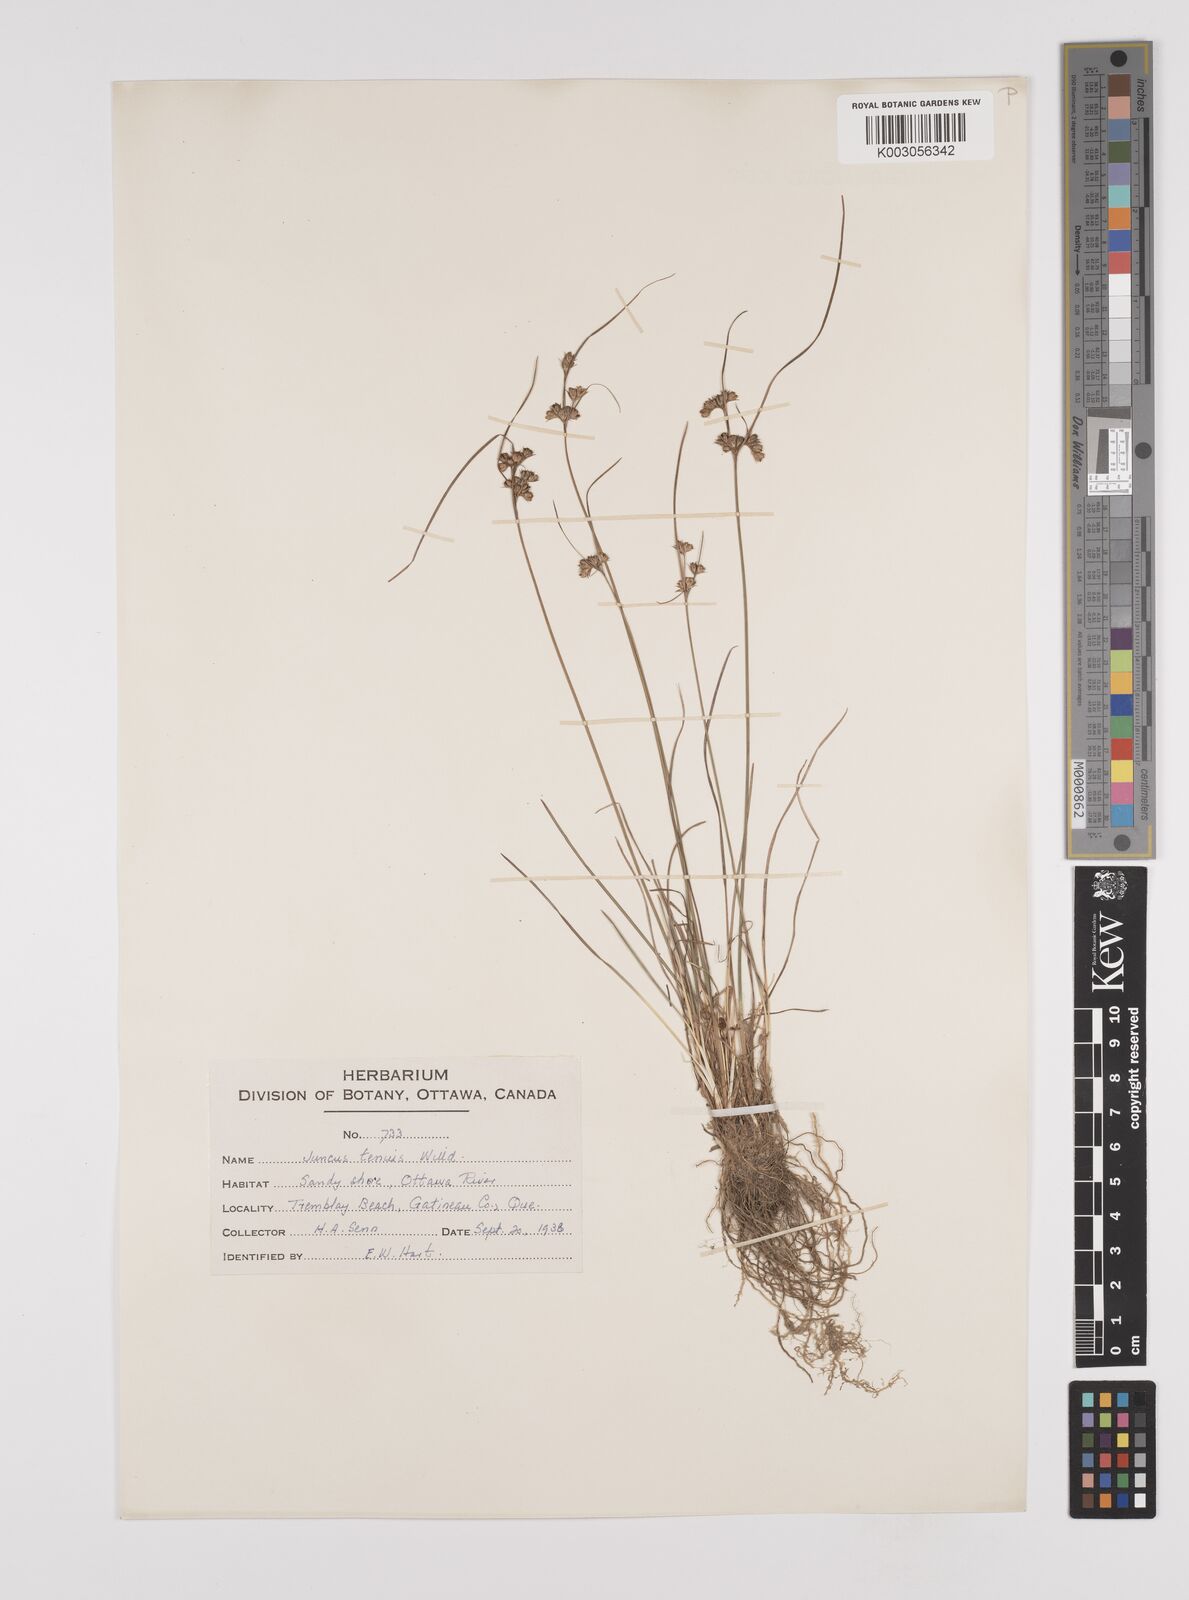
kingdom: Plantae
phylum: Tracheophyta
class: Liliopsida
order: Poales
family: Juncaceae
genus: Juncus
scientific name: Juncus tenuis
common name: Slender rush
